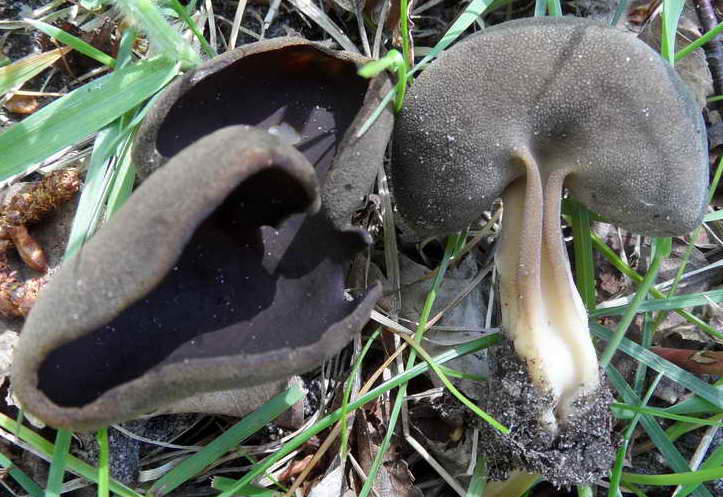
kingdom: Fungi
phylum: Ascomycota
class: Pezizomycetes
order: Pezizales
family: Helvellaceae
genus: Helvella
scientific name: Helvella solitaria
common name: Quélets foldhat
